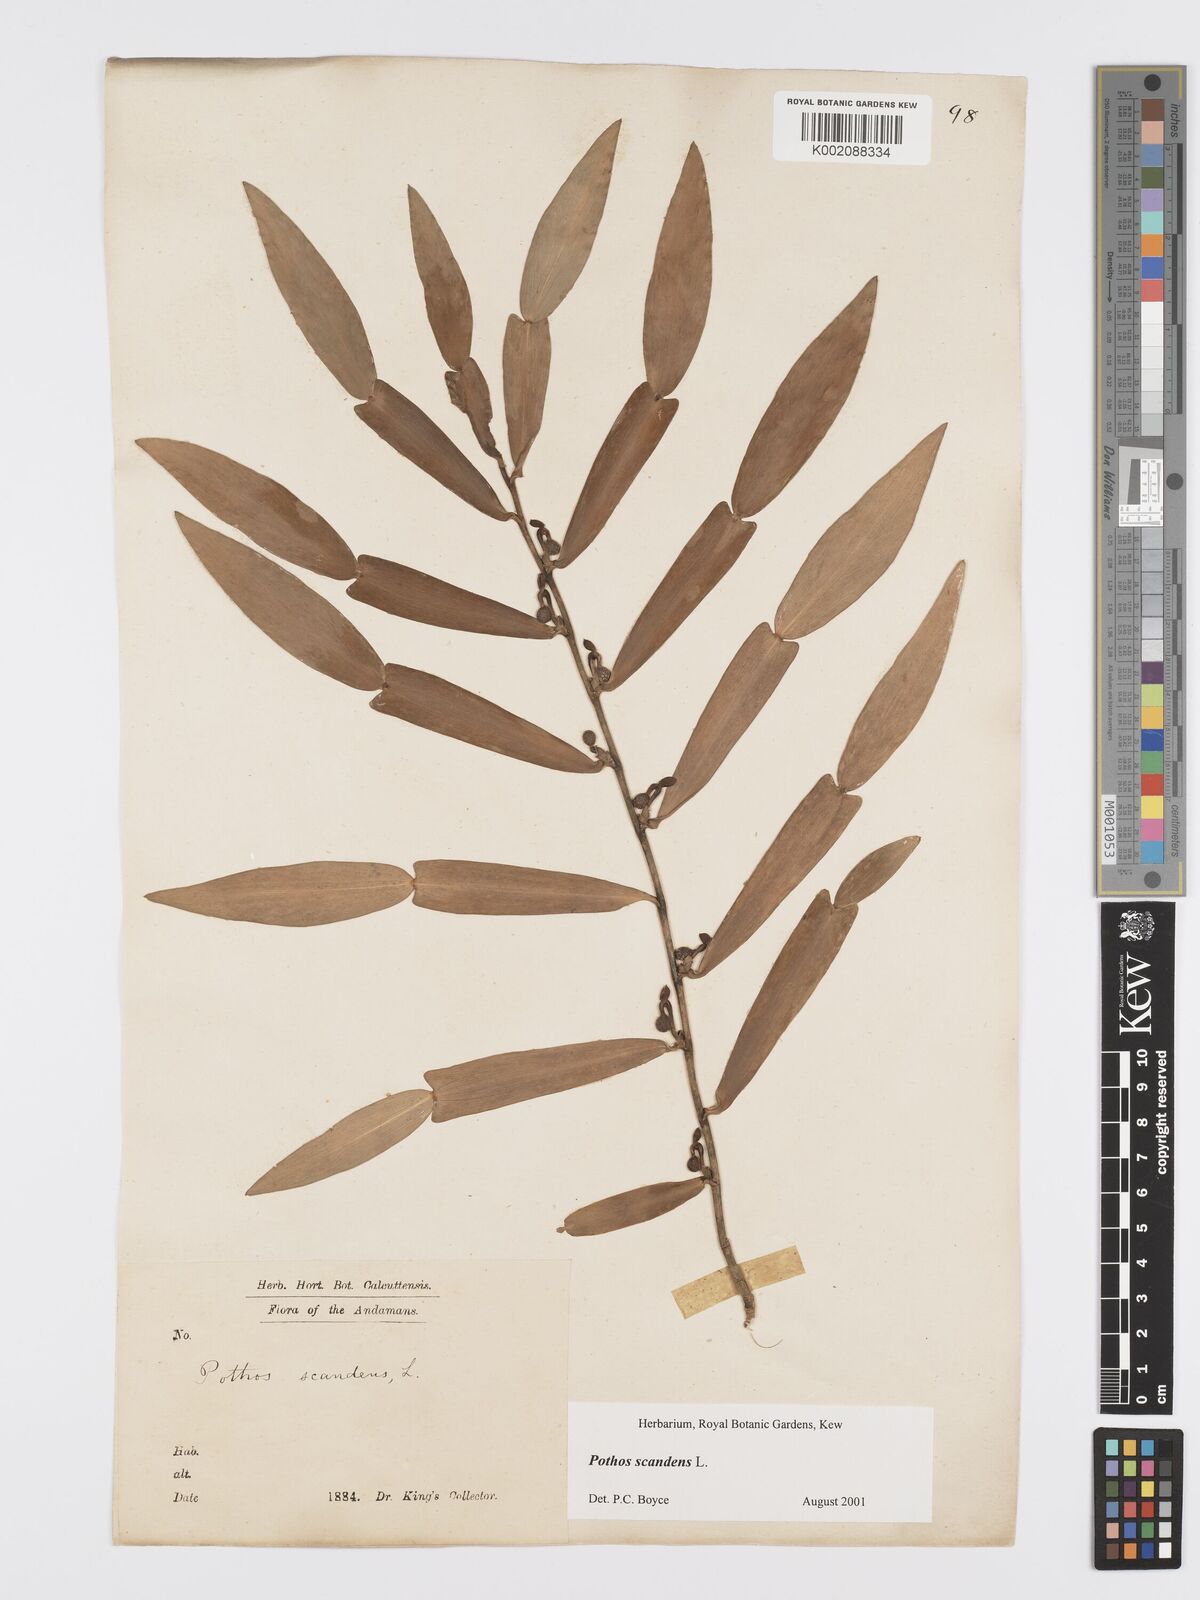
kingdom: Plantae
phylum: Tracheophyta
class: Liliopsida
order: Alismatales
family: Araceae
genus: Pothos
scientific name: Pothos scandens
